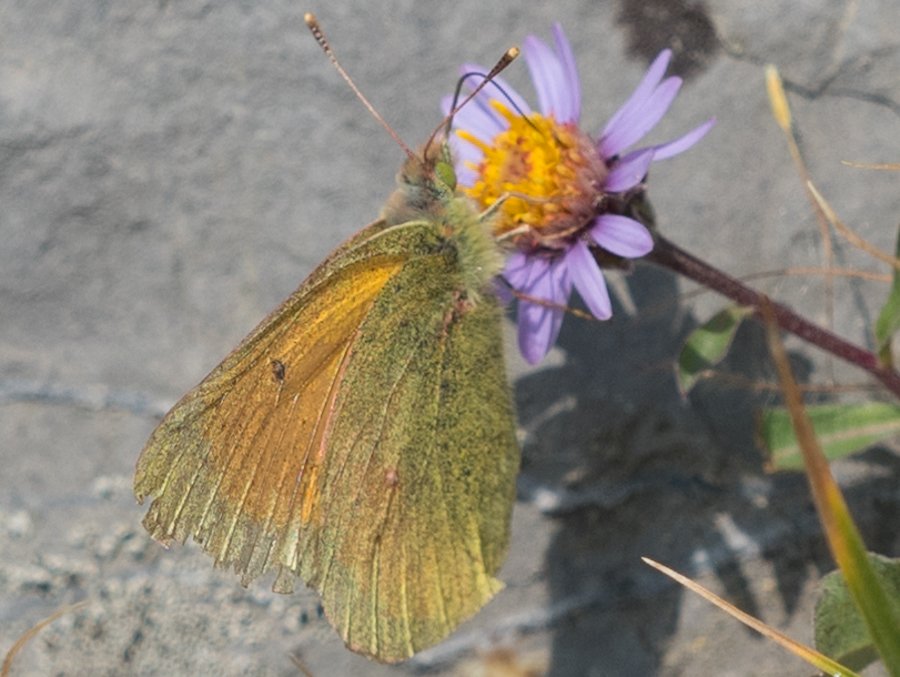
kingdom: Animalia
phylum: Arthropoda
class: Insecta
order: Lepidoptera
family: Pieridae
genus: Colias
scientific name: Colias meadii
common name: Mead's Sulphur
